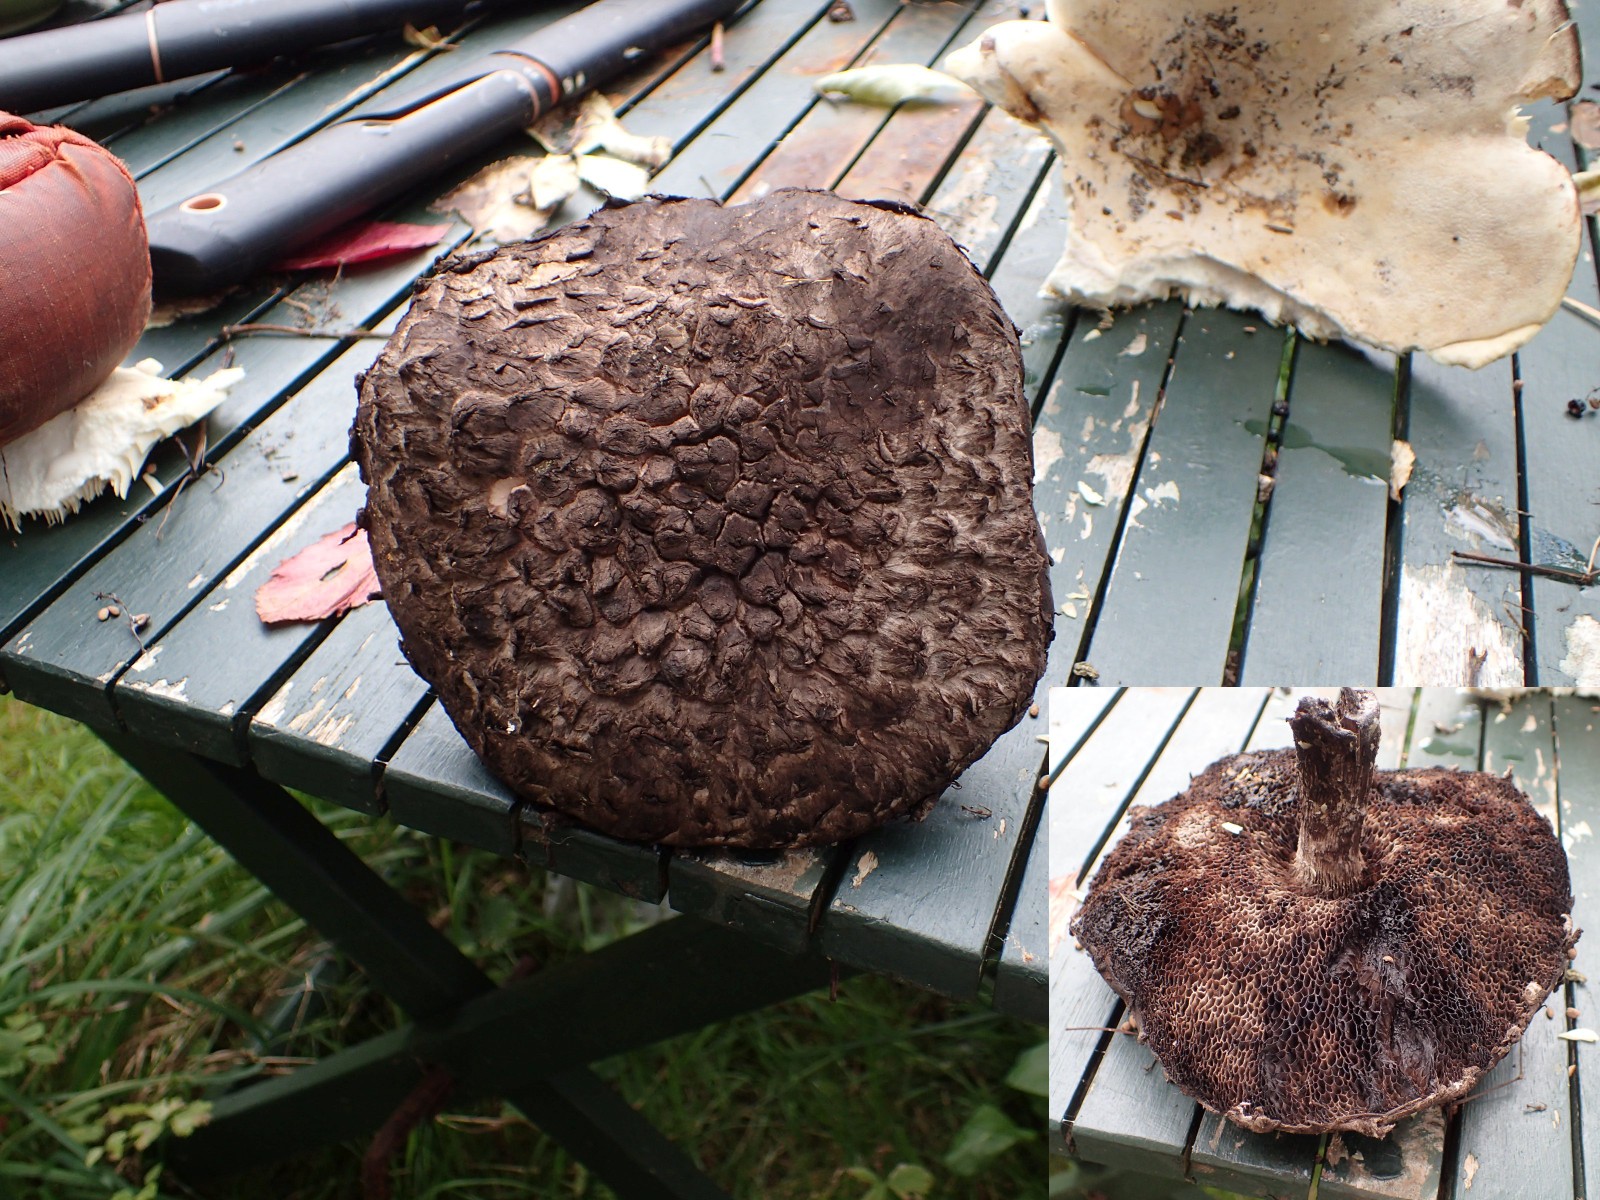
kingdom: Fungi
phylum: Basidiomycota
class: Agaricomycetes
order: Boletales
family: Boletaceae
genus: Strobilomyces
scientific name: Strobilomyces strobilaceus
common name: koglerørhat
